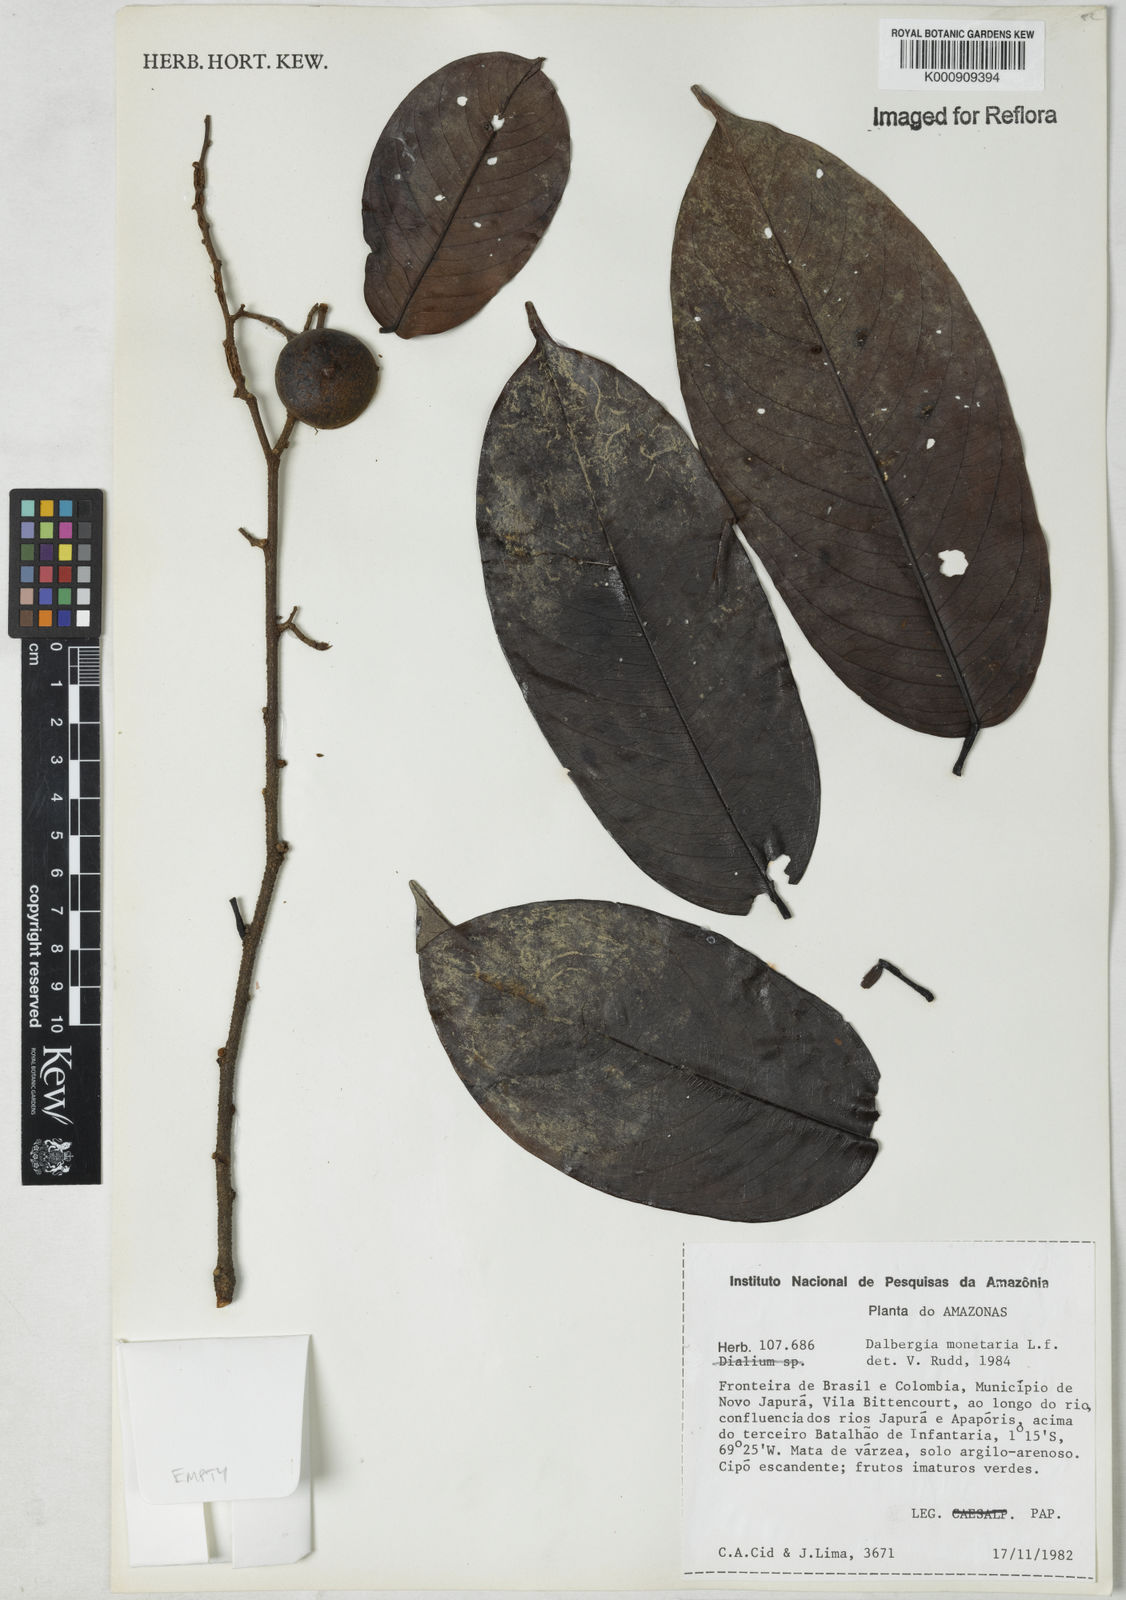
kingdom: Plantae
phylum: Tracheophyta
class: Magnoliopsida
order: Fabales
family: Fabaceae
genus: Dalbergia
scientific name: Dalbergia
